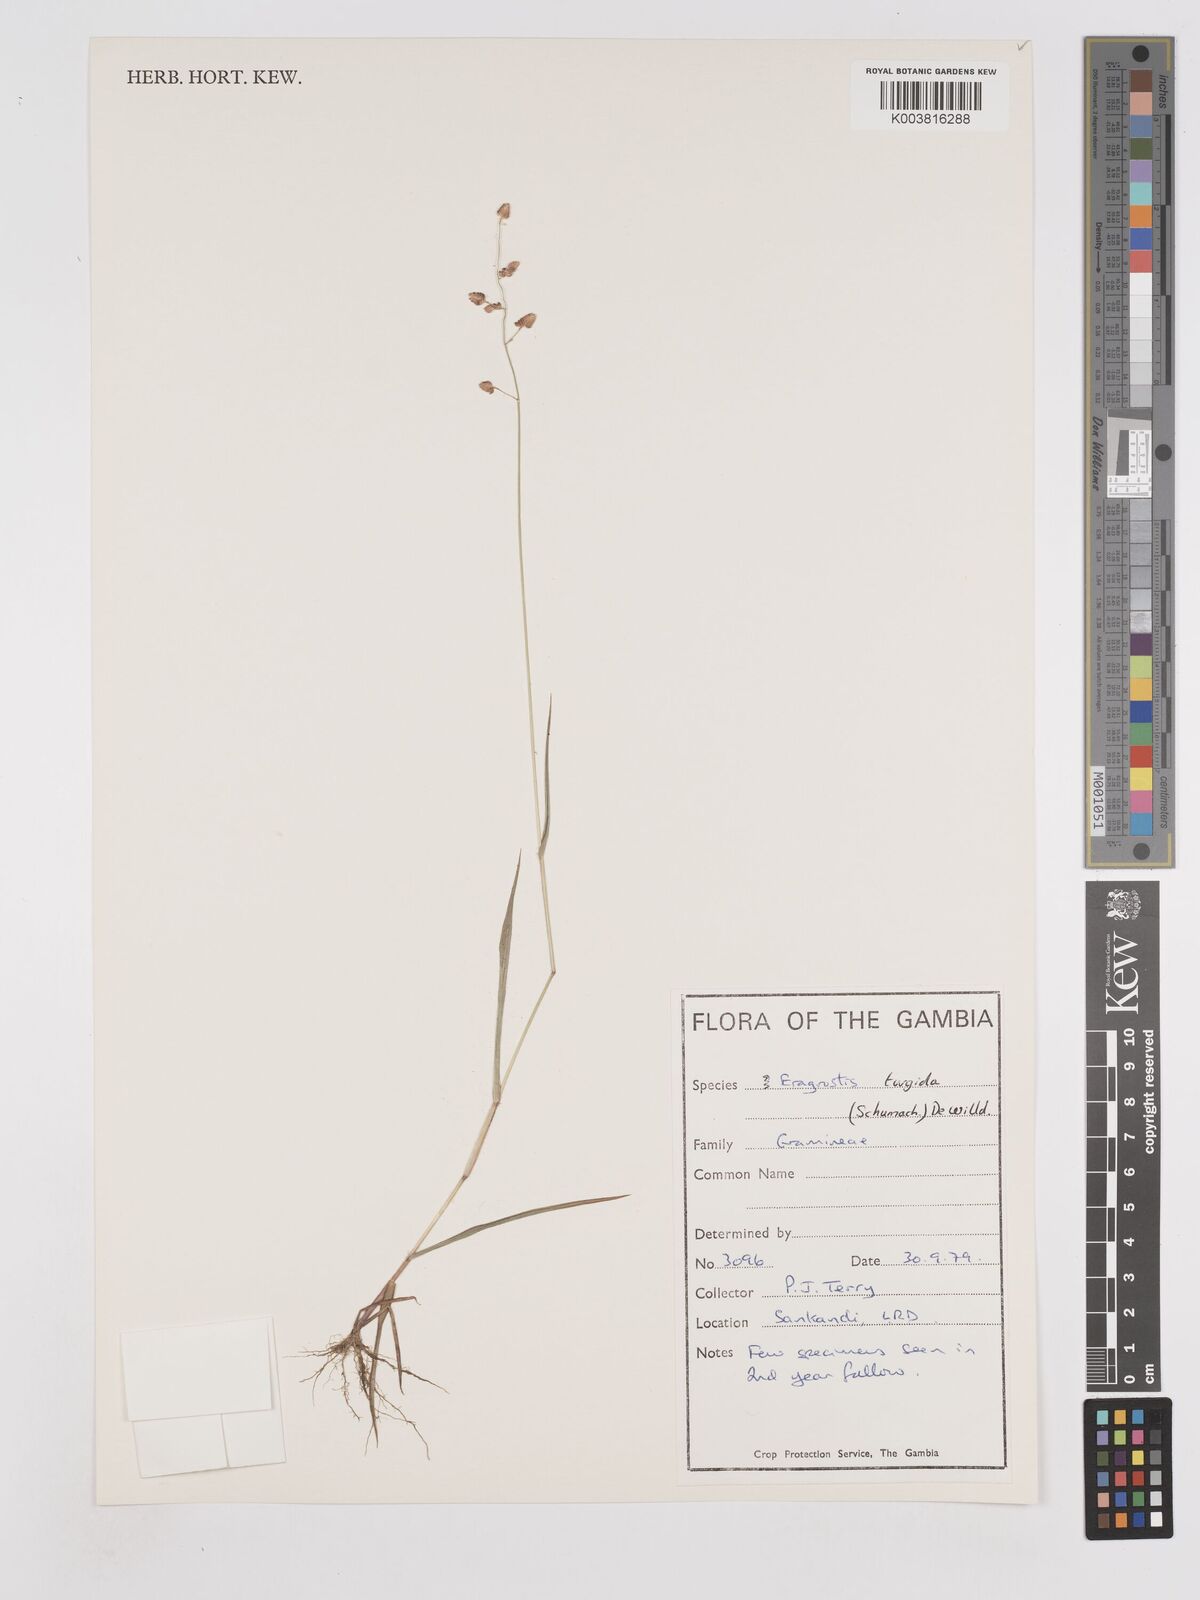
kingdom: Plantae
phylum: Tracheophyta
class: Liliopsida
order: Poales
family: Poaceae
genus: Eragrostis
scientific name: Eragrostis turgida
